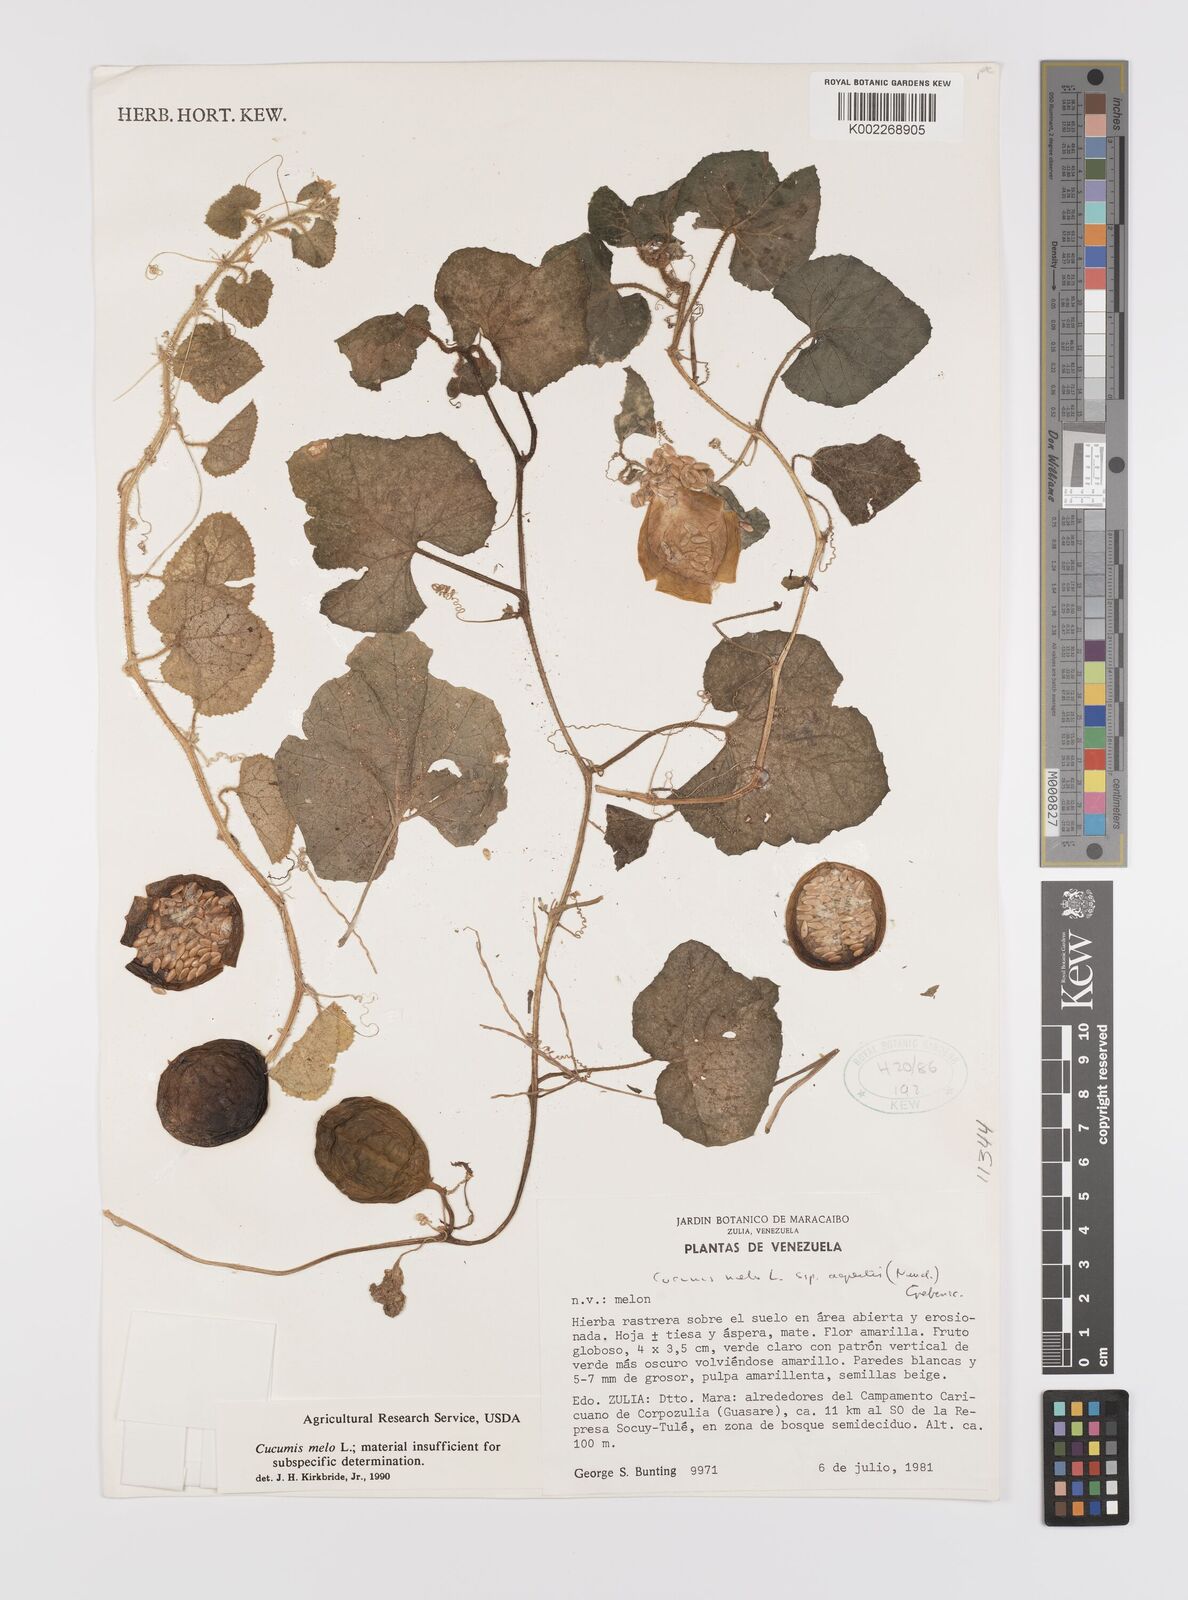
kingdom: Plantae
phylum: Tracheophyta
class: Magnoliopsida
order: Cucurbitales
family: Cucurbitaceae
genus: Cucumis
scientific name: Cucumis melo
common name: Melon
